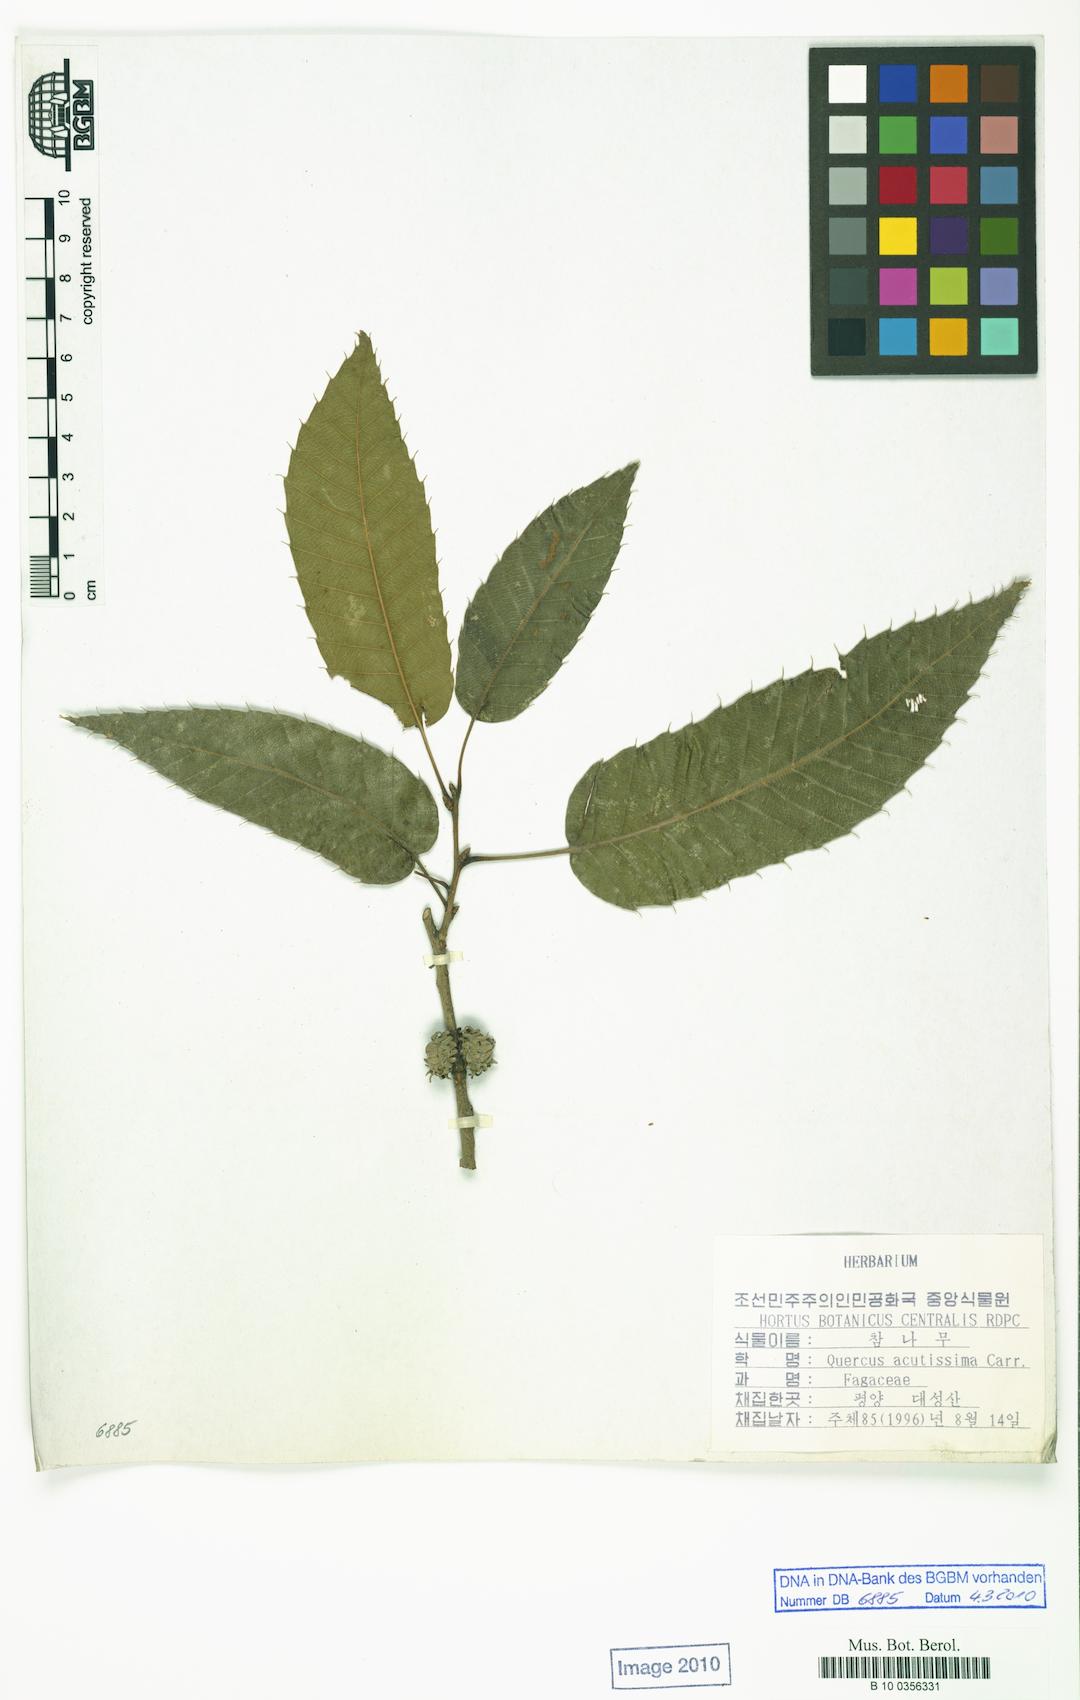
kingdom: Plantae
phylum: Tracheophyta
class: Magnoliopsida
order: Fagales
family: Fagaceae
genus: Quercus
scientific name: Quercus acutissima
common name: Sawtooth oak
